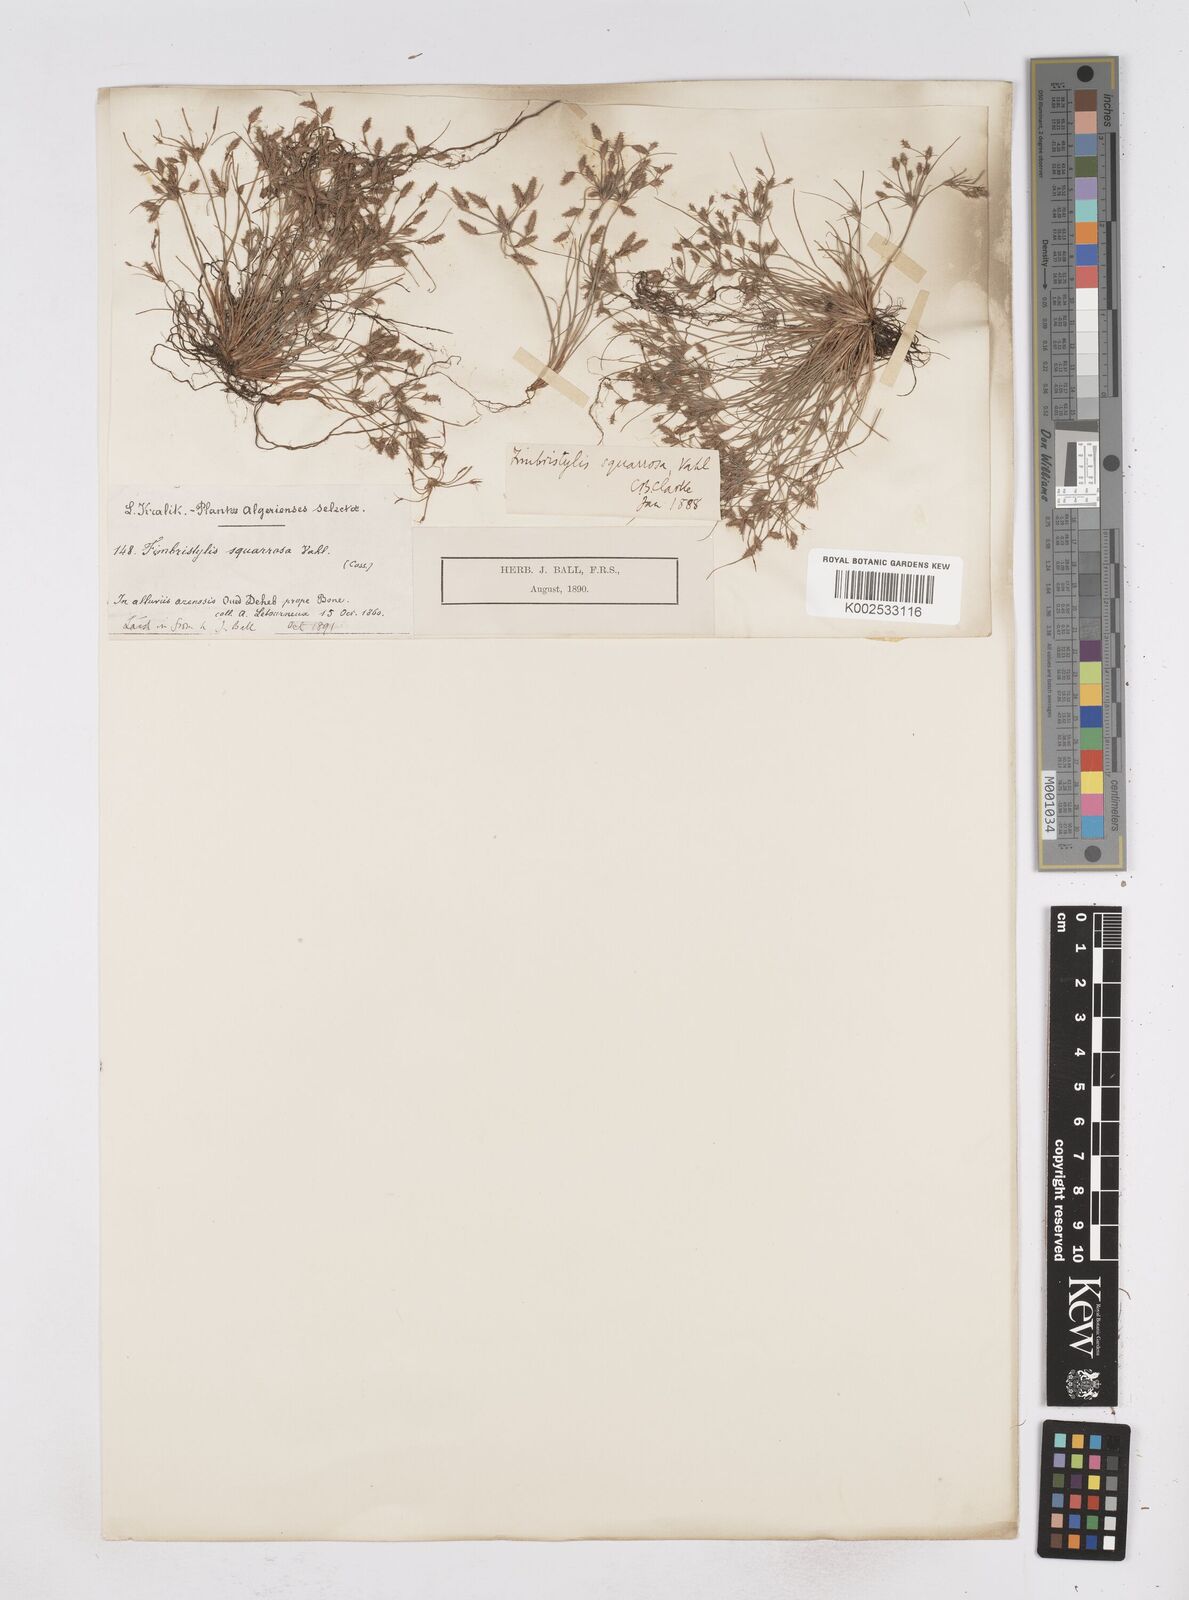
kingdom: Plantae
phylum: Tracheophyta
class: Liliopsida
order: Poales
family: Cyperaceae
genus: Fimbristylis
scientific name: Fimbristylis squarrosa
